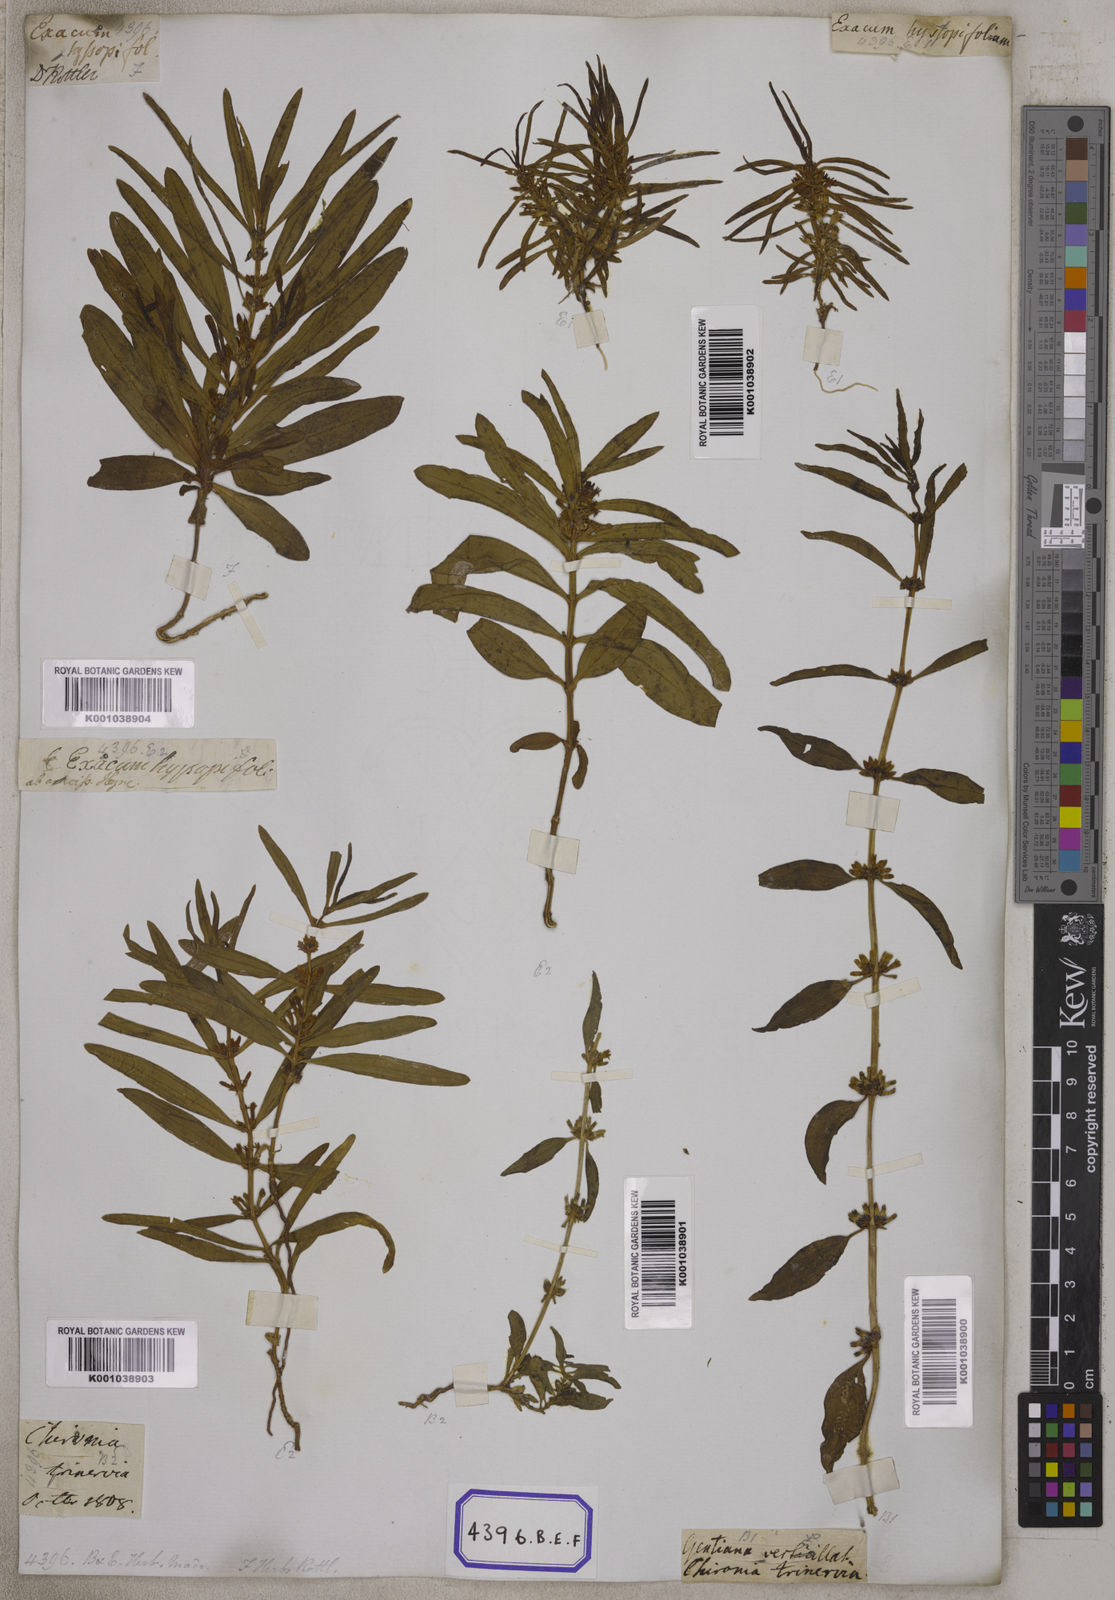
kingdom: Plantae
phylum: Tracheophyta
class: Magnoliopsida
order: Gentianales
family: Gentianaceae
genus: Enicostema
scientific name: Enicostema verticillatum
